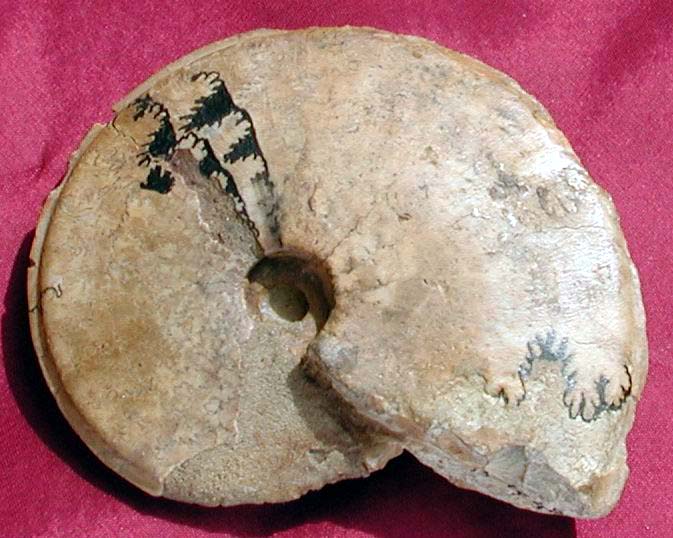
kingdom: Animalia
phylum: Mollusca
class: Cephalopoda
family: Graphoceratidae
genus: Hyperlioceras
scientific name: Hyperlioceras
